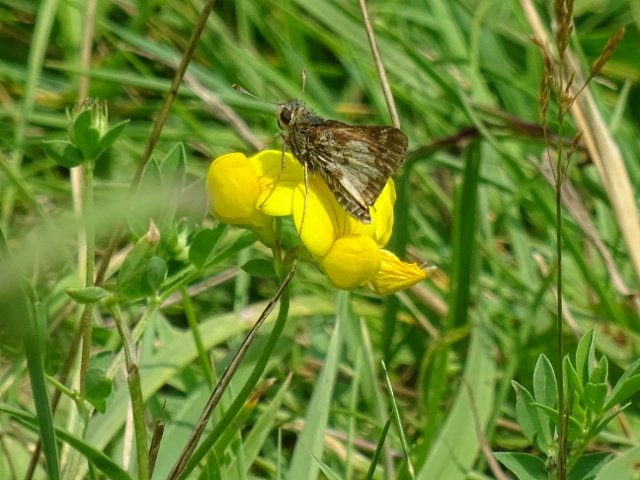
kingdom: Animalia
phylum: Arthropoda
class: Insecta
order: Lepidoptera
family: Hesperiidae
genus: Polites
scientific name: Polites coras
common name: Peck's Skipper
